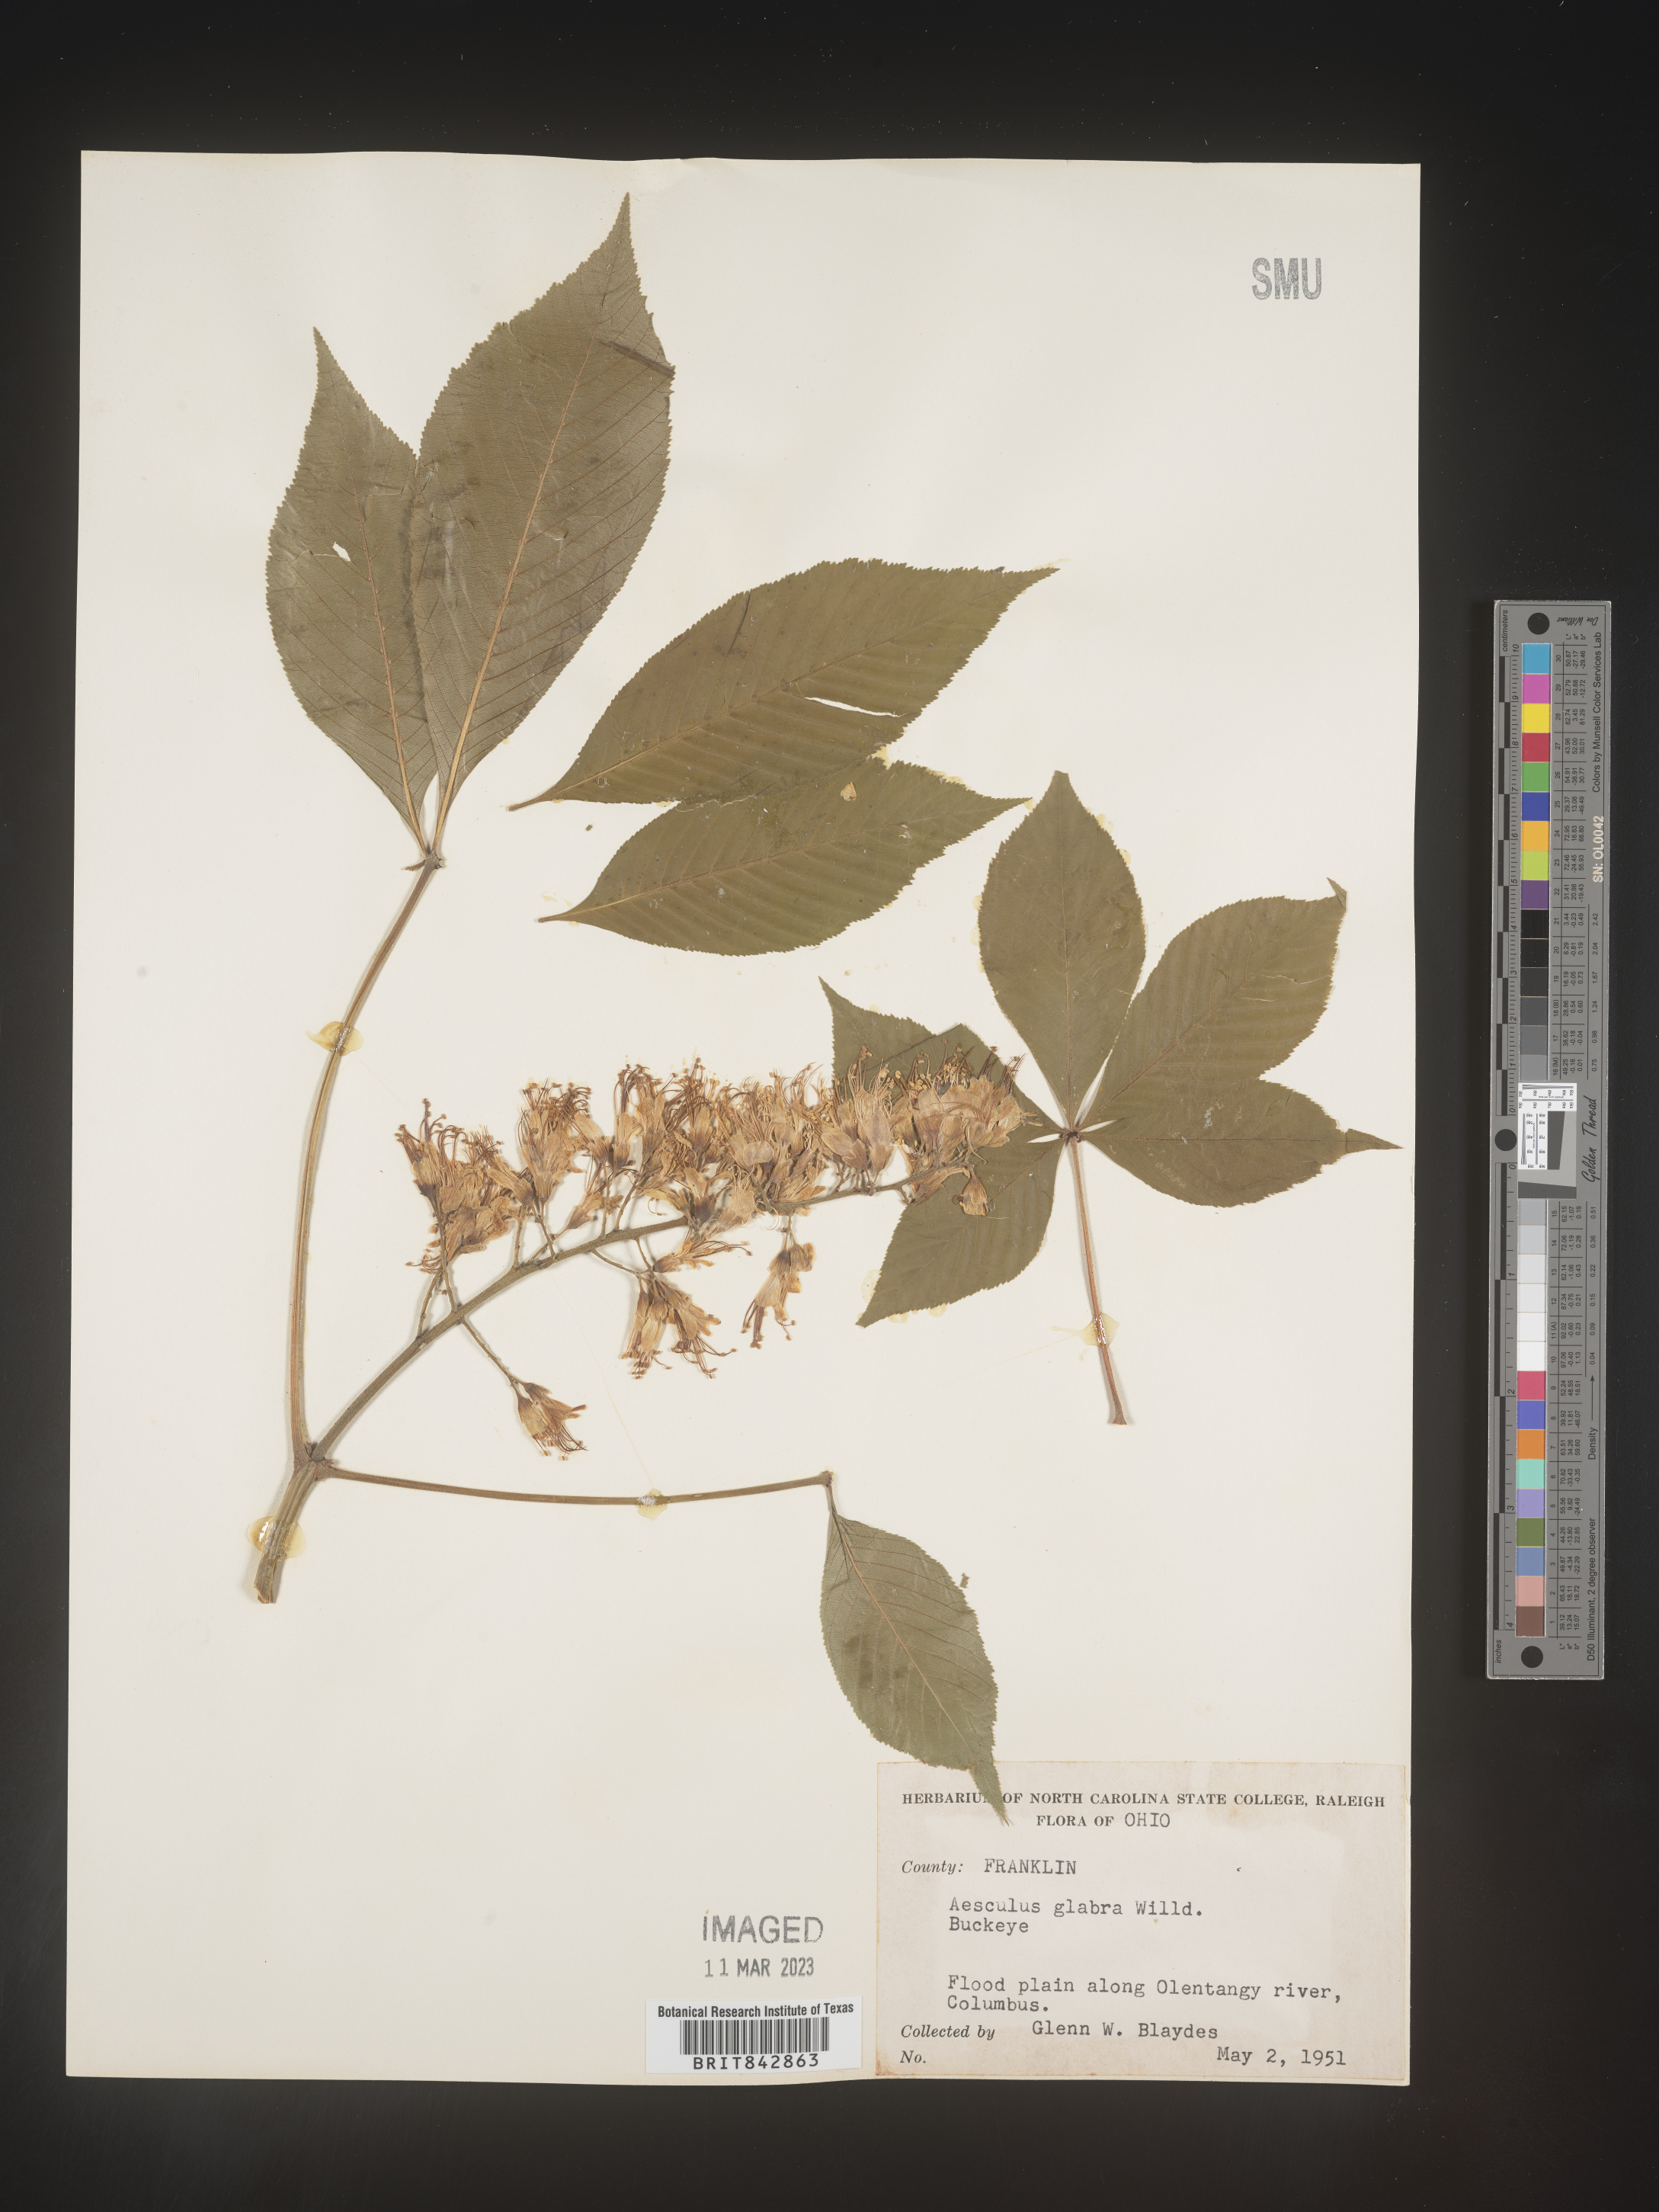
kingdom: Plantae
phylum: Tracheophyta
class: Magnoliopsida
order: Sapindales
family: Sapindaceae
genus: Aesculus
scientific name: Aesculus glabra
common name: Ohio buckeye
